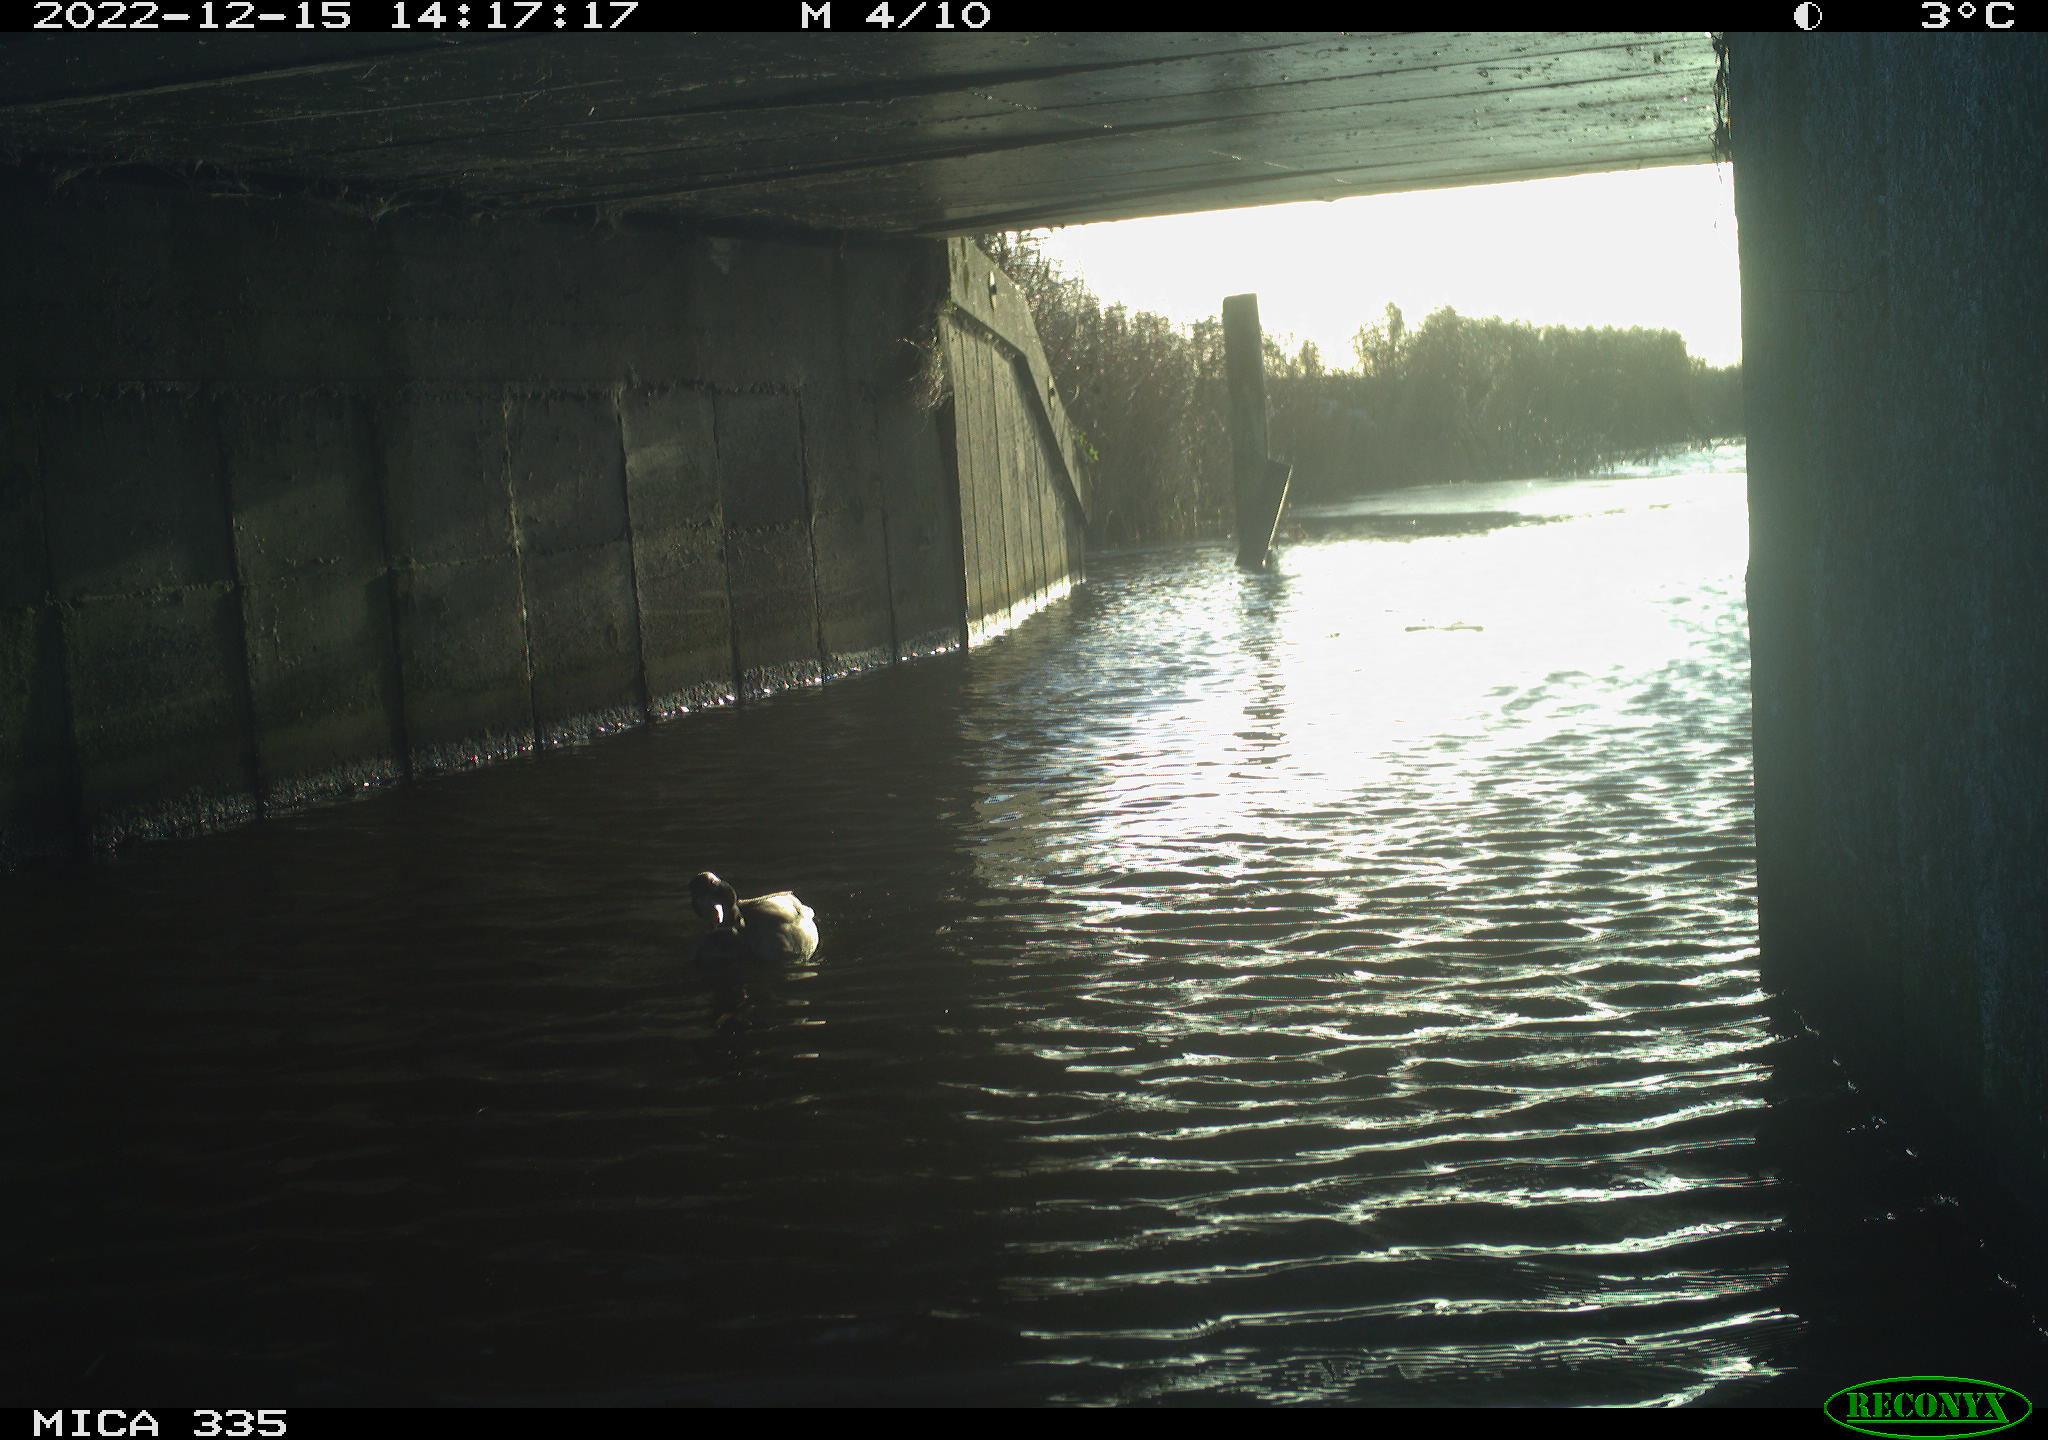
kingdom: Animalia
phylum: Chordata
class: Aves
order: Anseriformes
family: Anatidae
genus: Anas
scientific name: Anas
